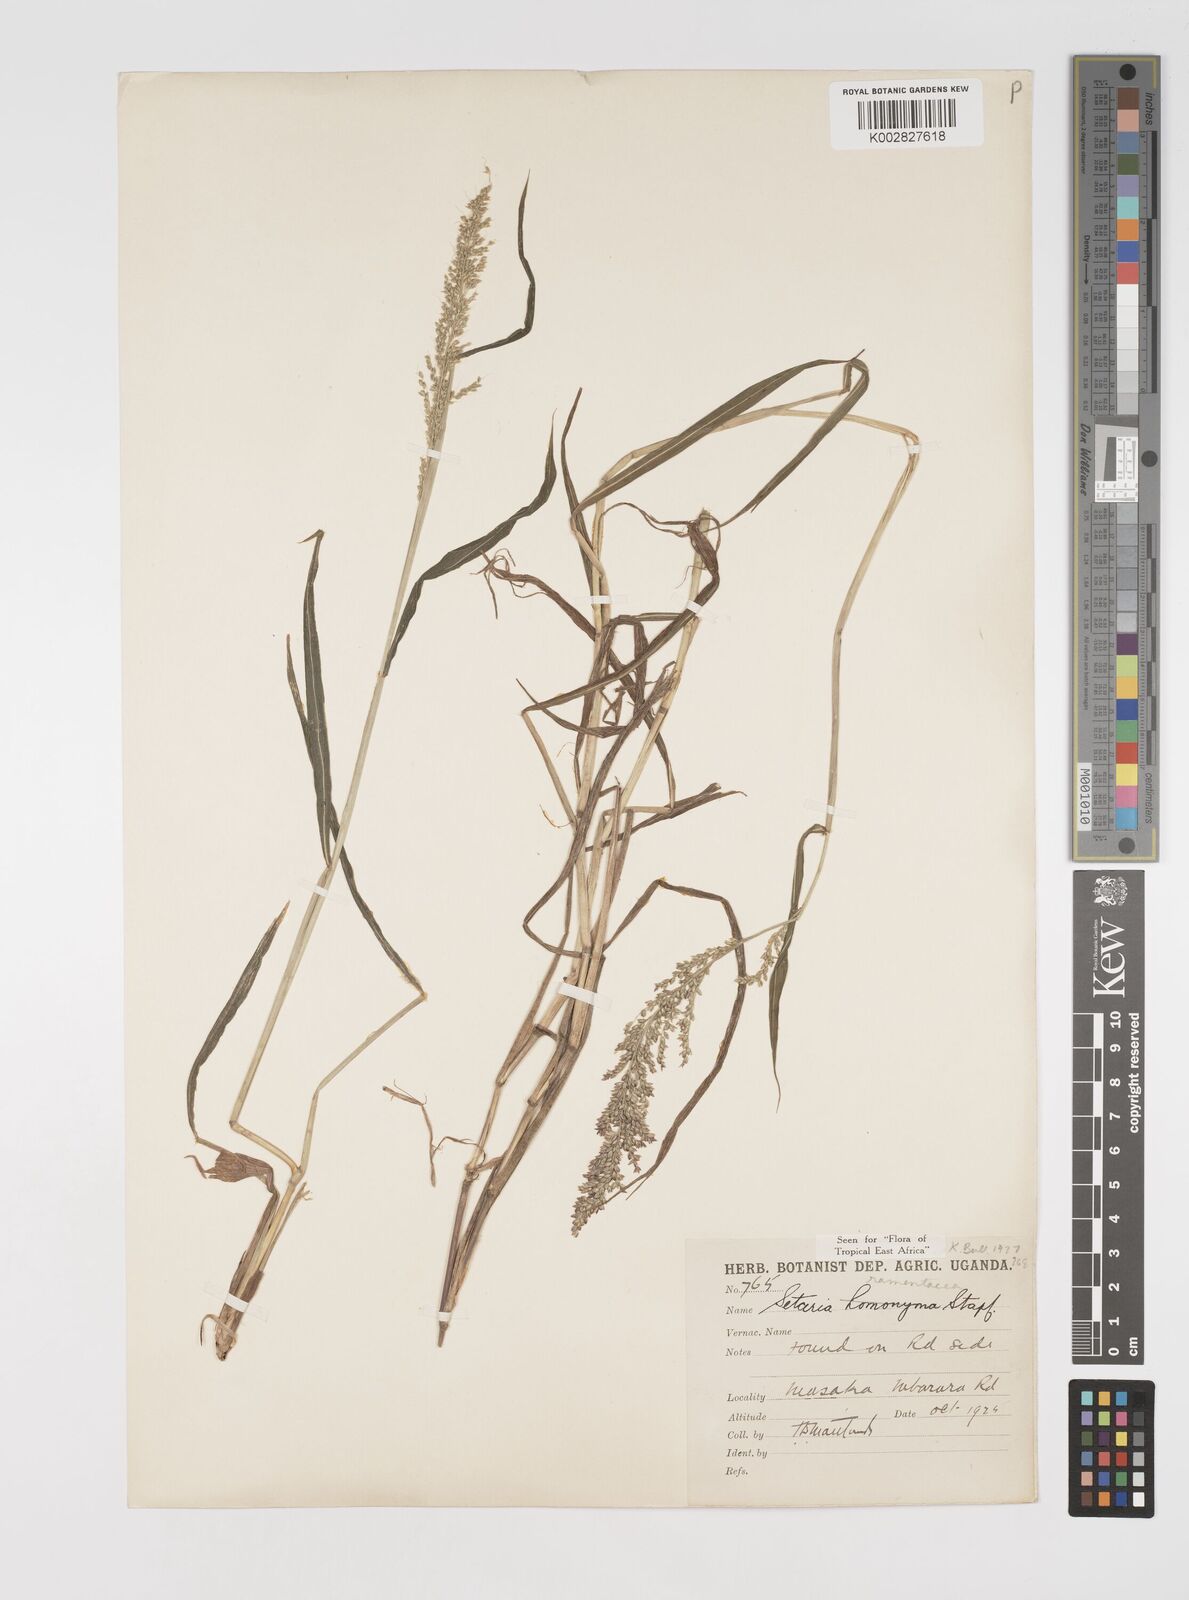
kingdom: Plantae
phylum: Tracheophyta
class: Liliopsida
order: Poales
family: Poaceae
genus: Setaria
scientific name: Setaria kagerensis
